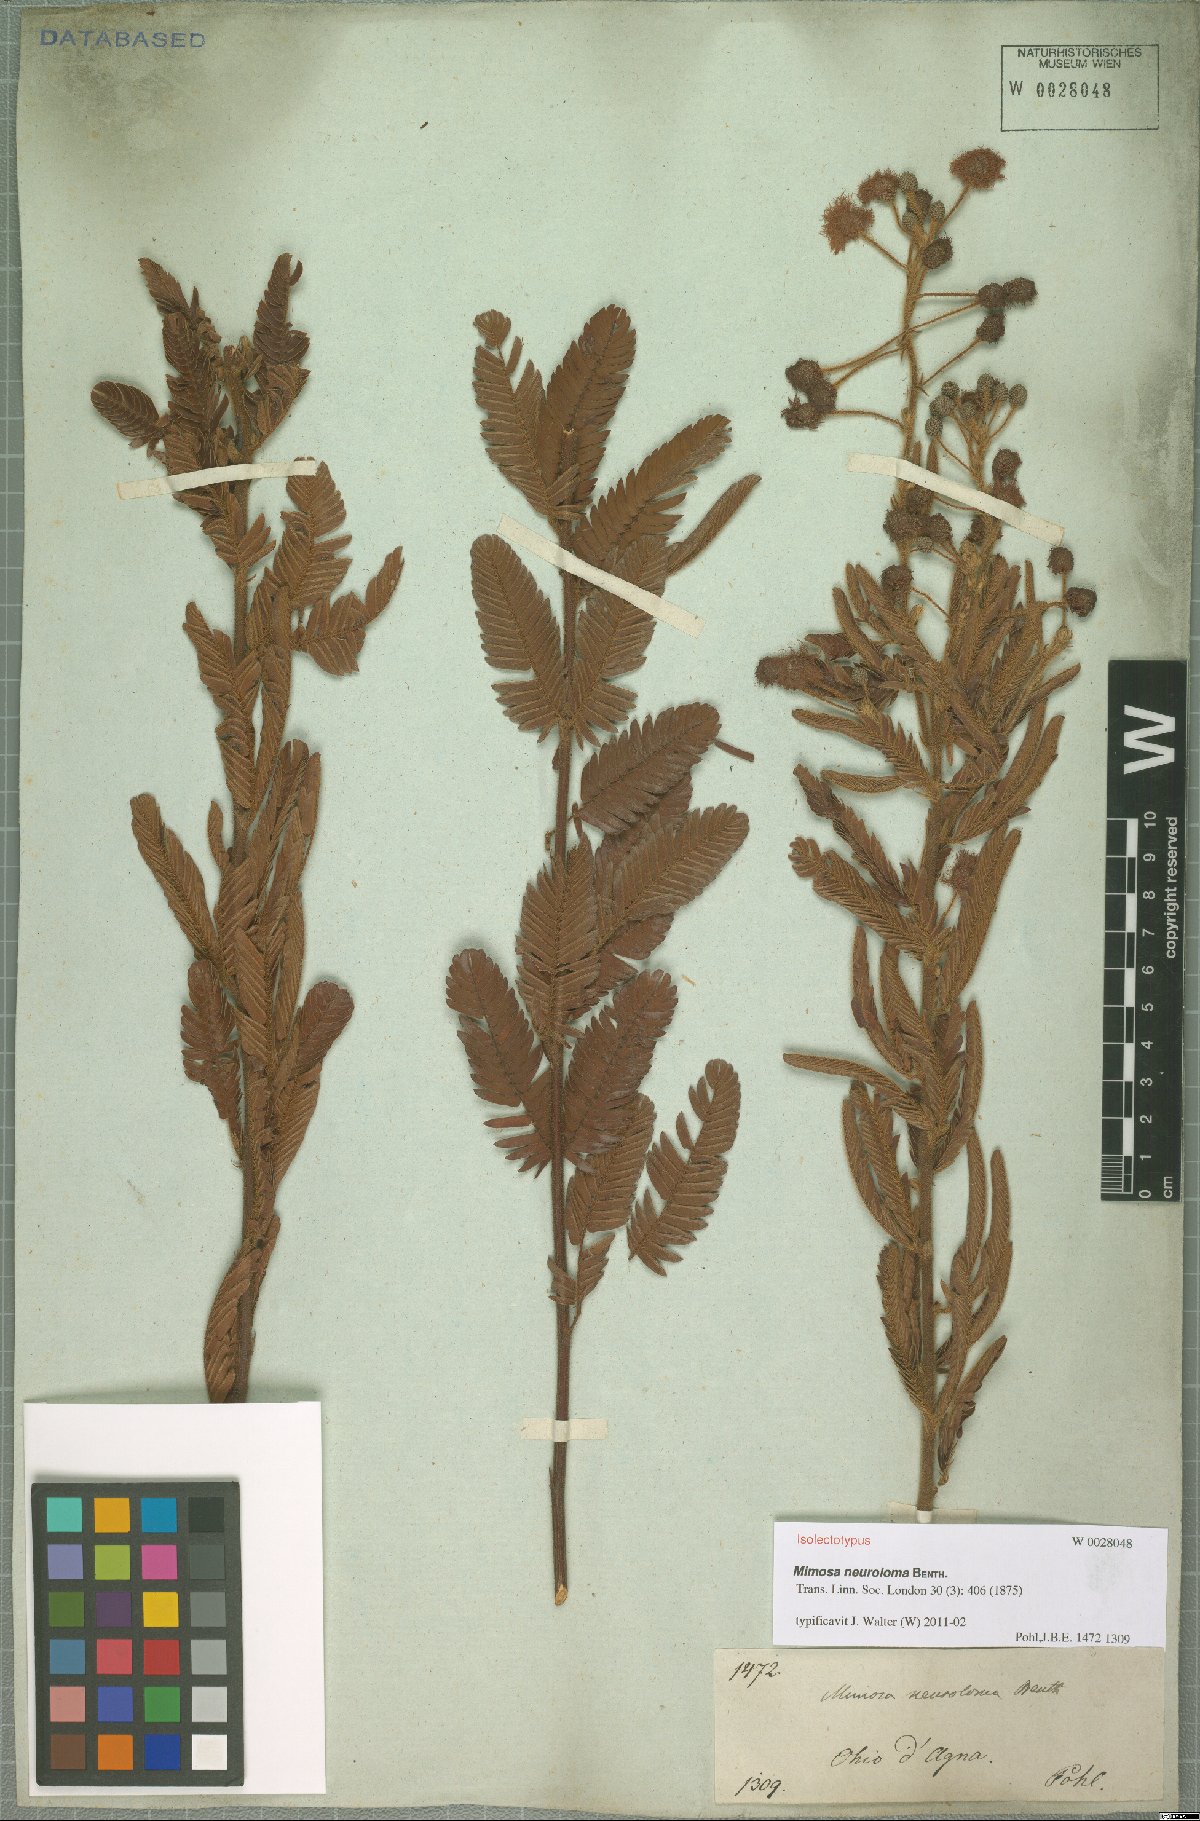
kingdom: Plantae
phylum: Tracheophyta
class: Magnoliopsida
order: Fabales
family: Fabaceae
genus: Mimosa
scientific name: Mimosa distans
